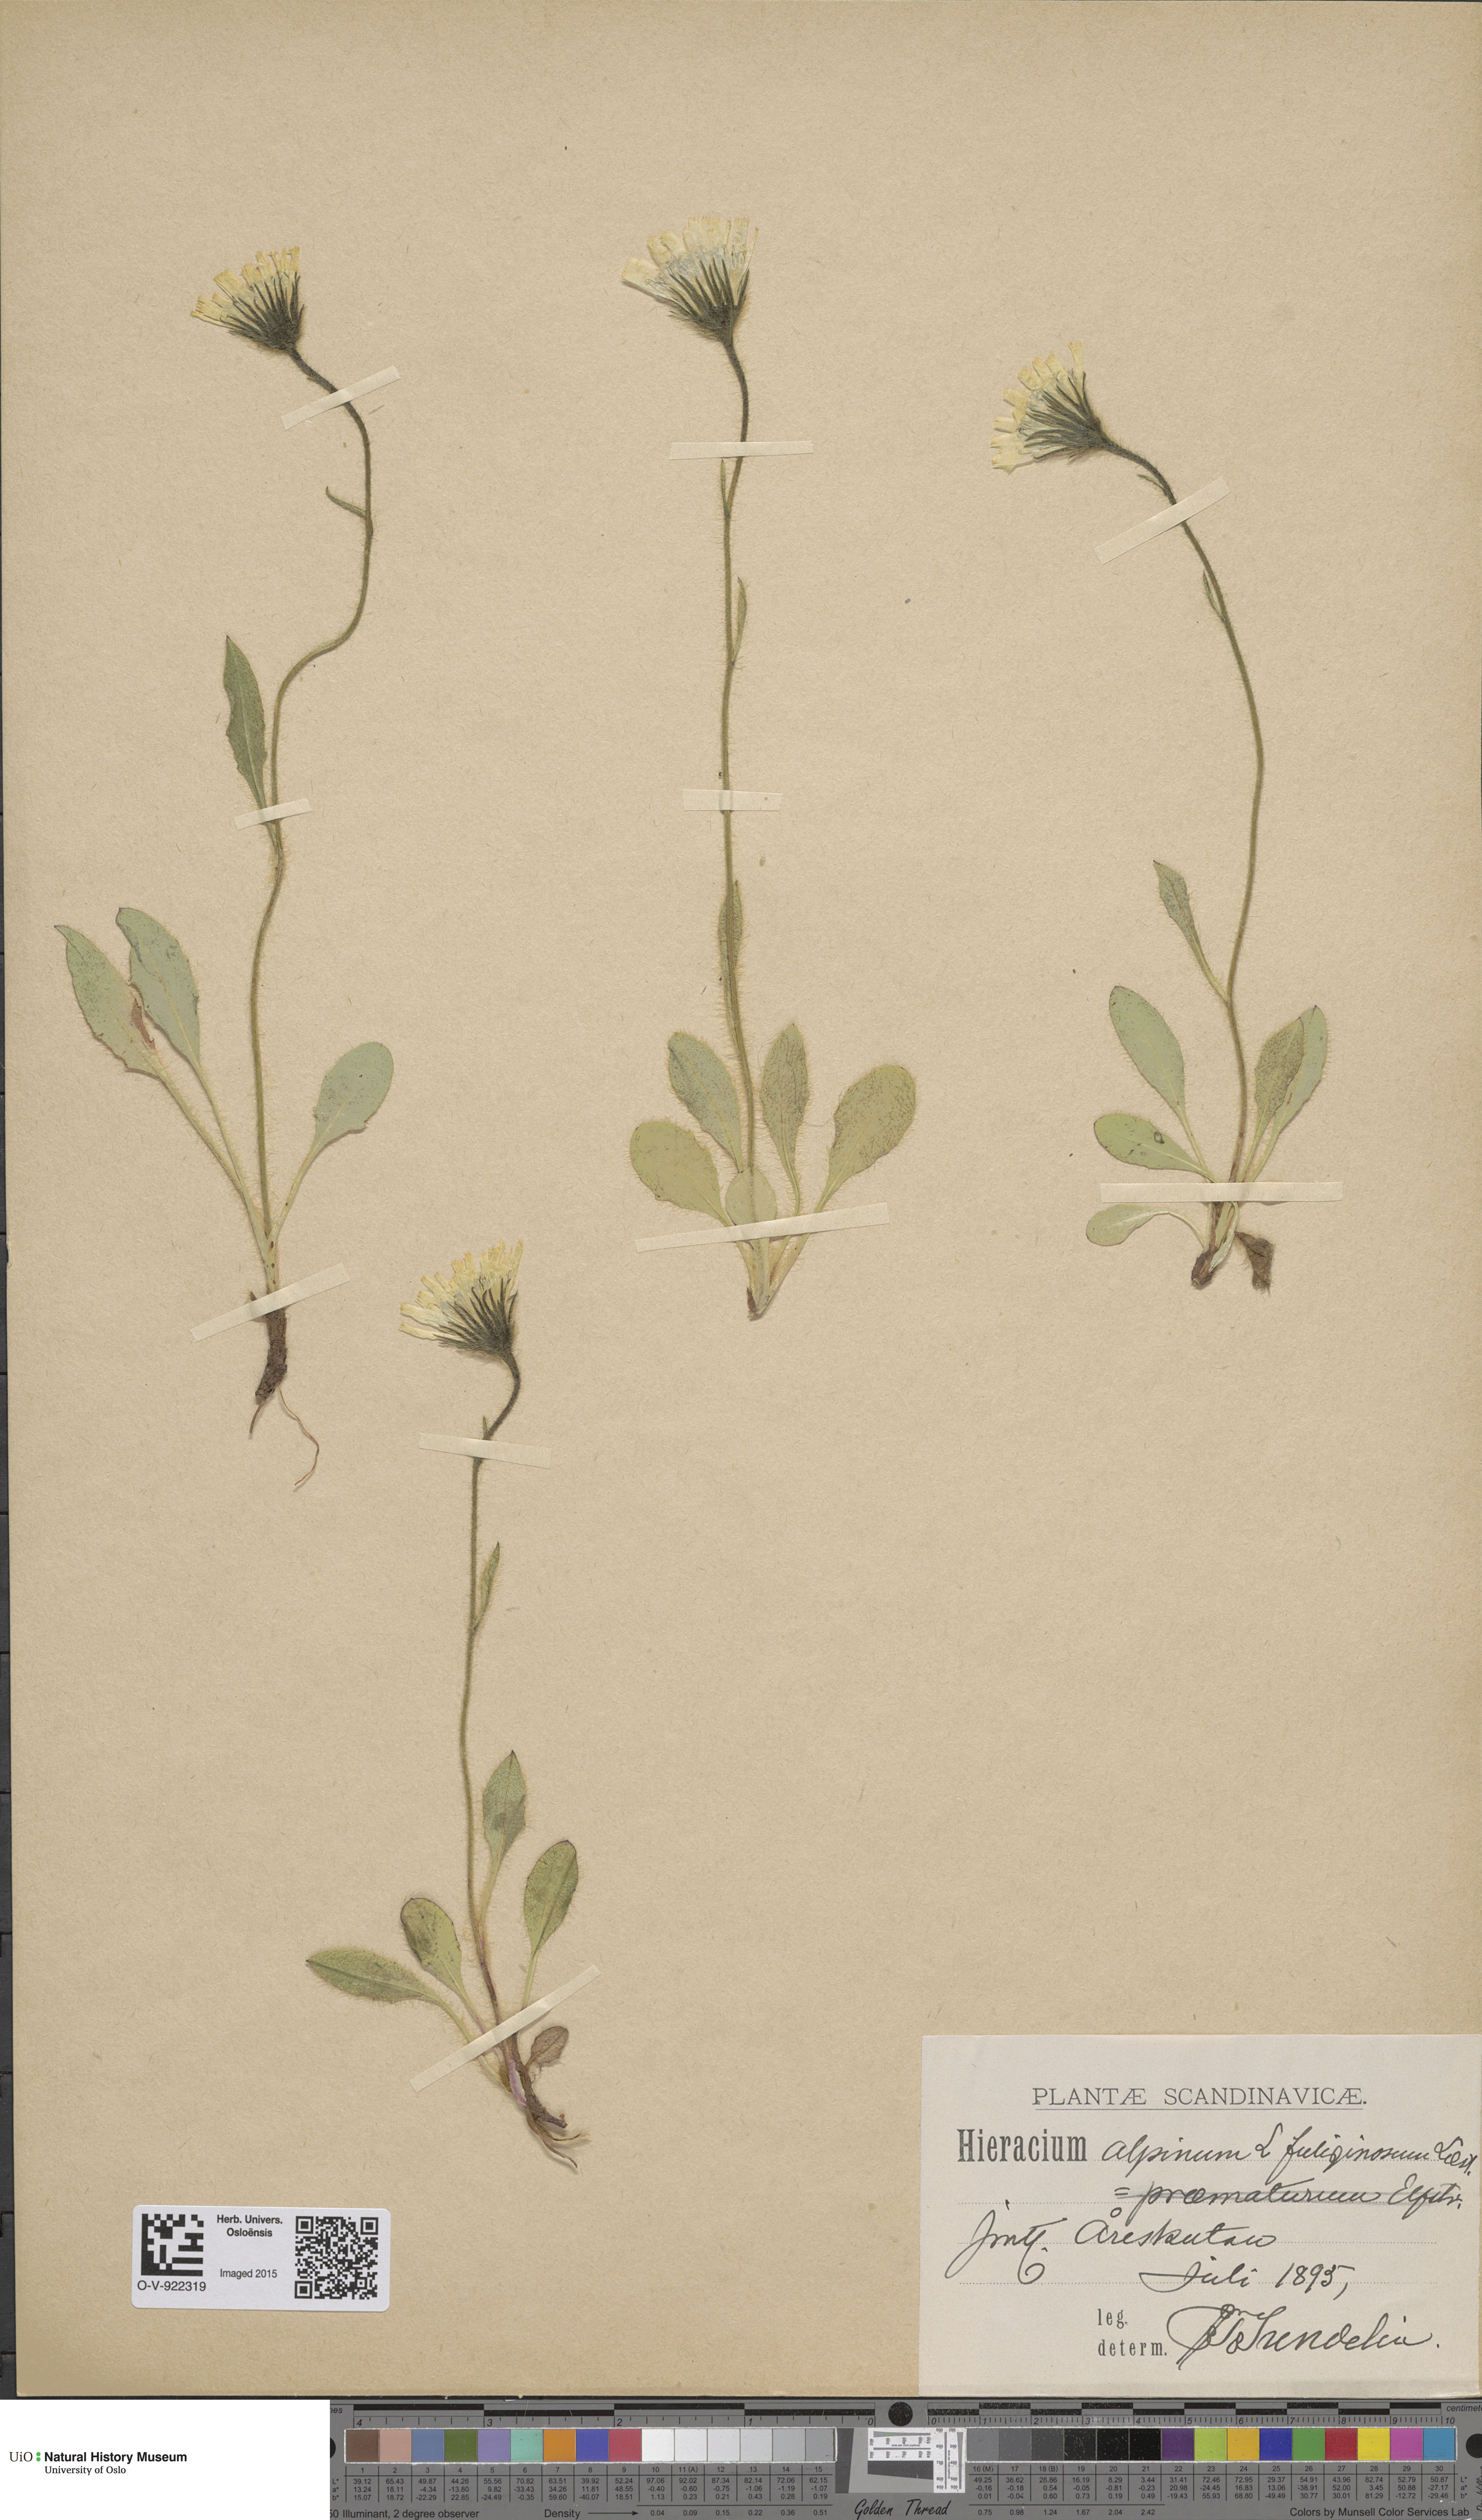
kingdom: Plantae
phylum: Tracheophyta
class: Magnoliopsida
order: Asterales
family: Asteraceae
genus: Hieracium
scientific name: Hieracium alpinum
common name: Alpine hawkweed
